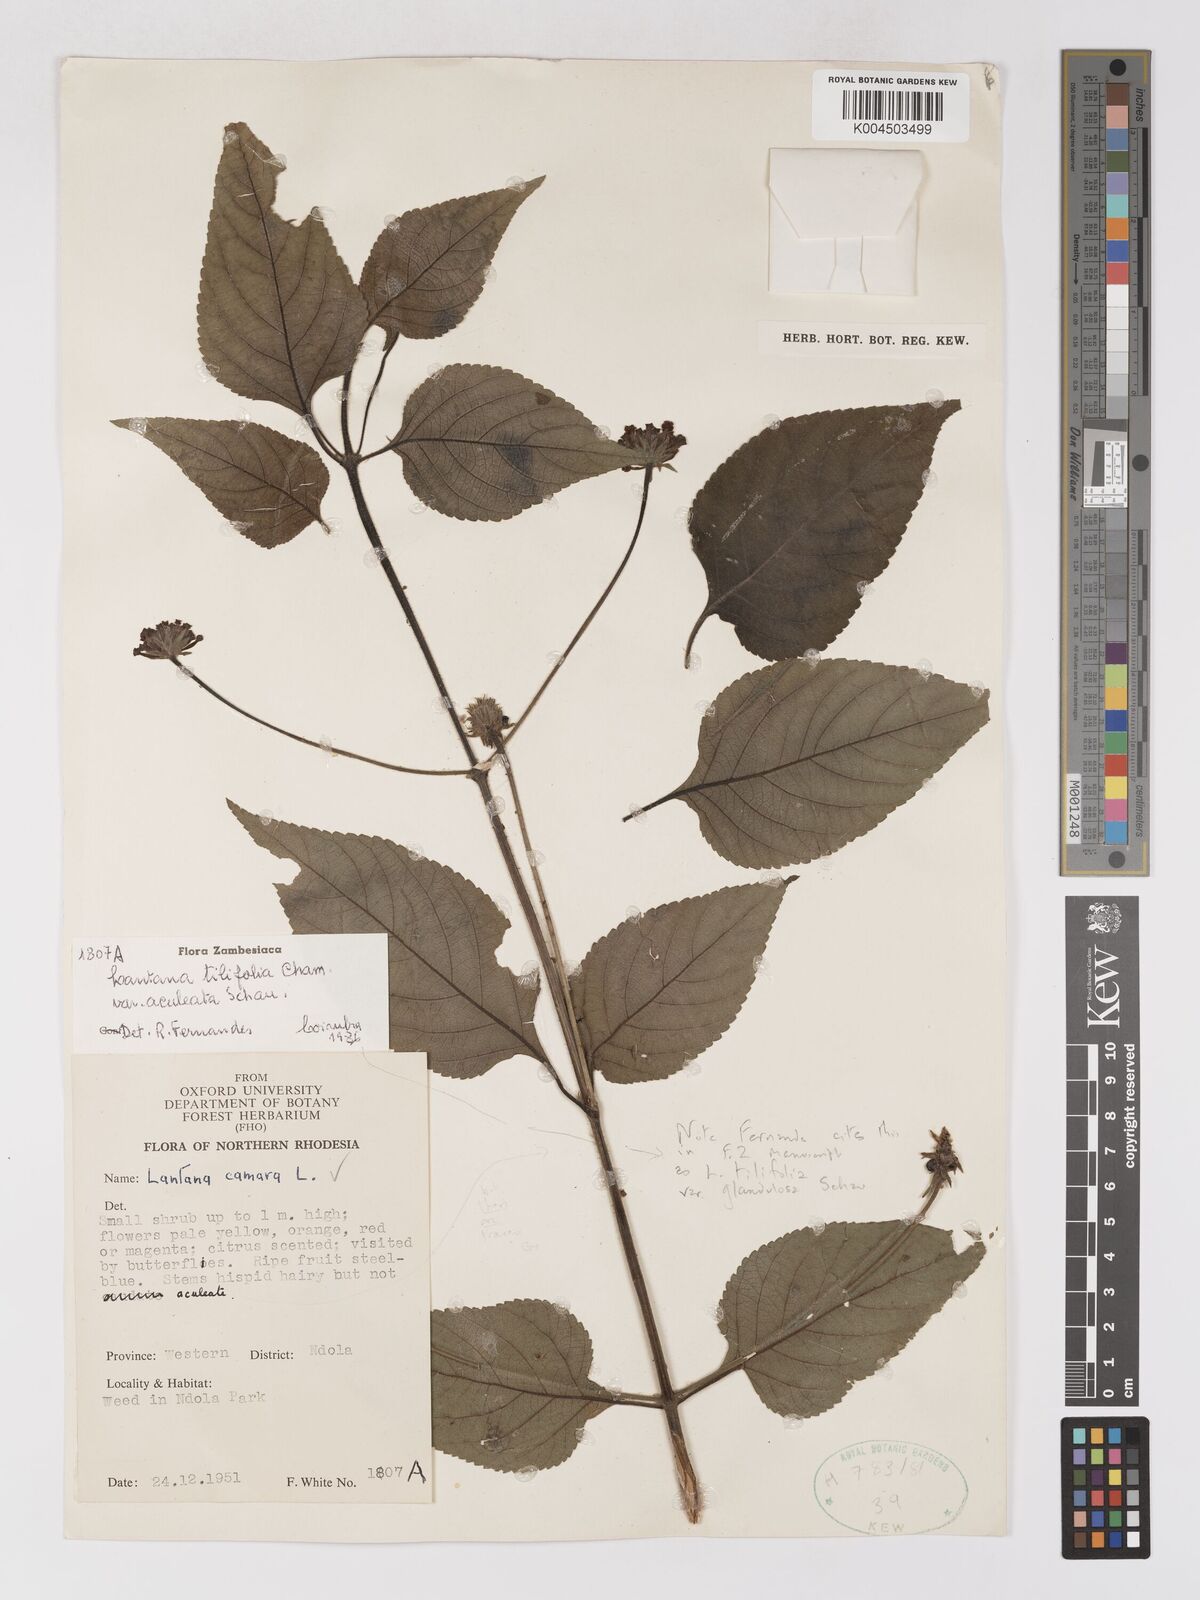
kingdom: Plantae
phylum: Tracheophyta
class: Magnoliopsida
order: Lamiales
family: Verbenaceae
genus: Lantana
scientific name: Lantana horrida
